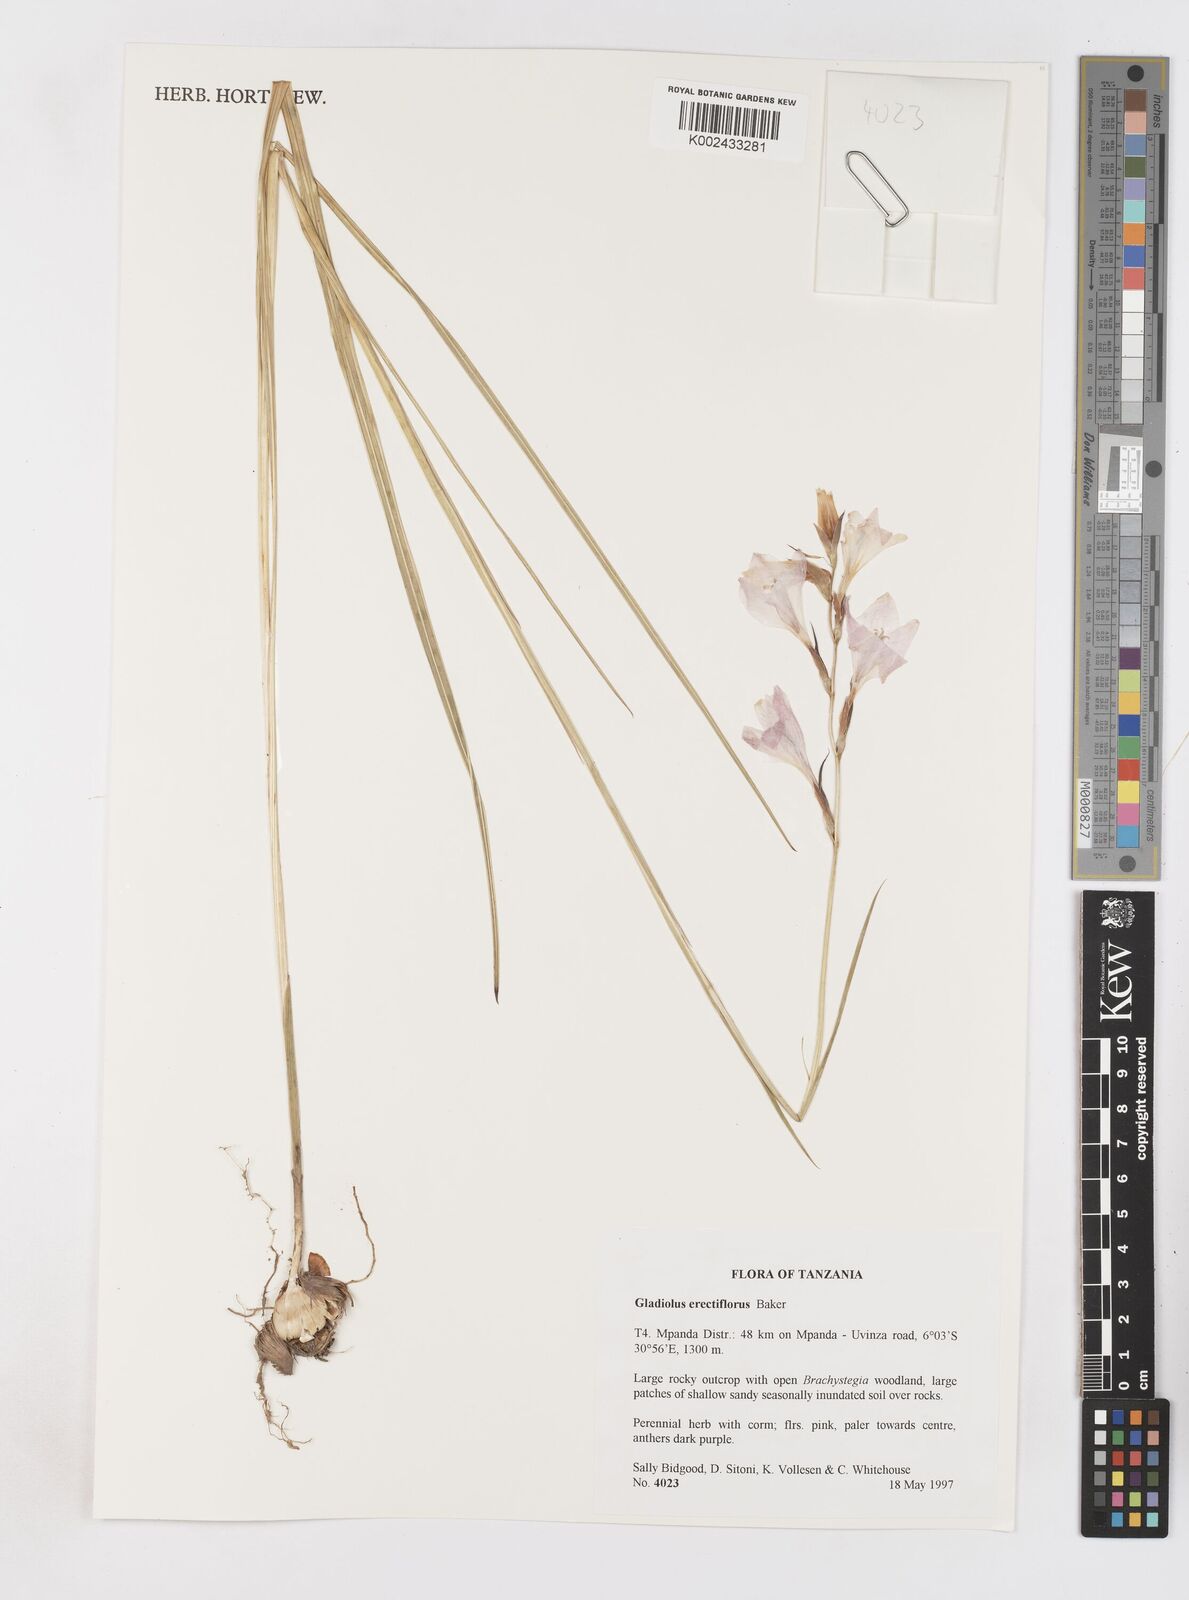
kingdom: Plantae
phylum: Tracheophyta
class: Liliopsida
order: Asparagales
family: Iridaceae
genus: Gladiolus
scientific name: Gladiolus erectiflorus
